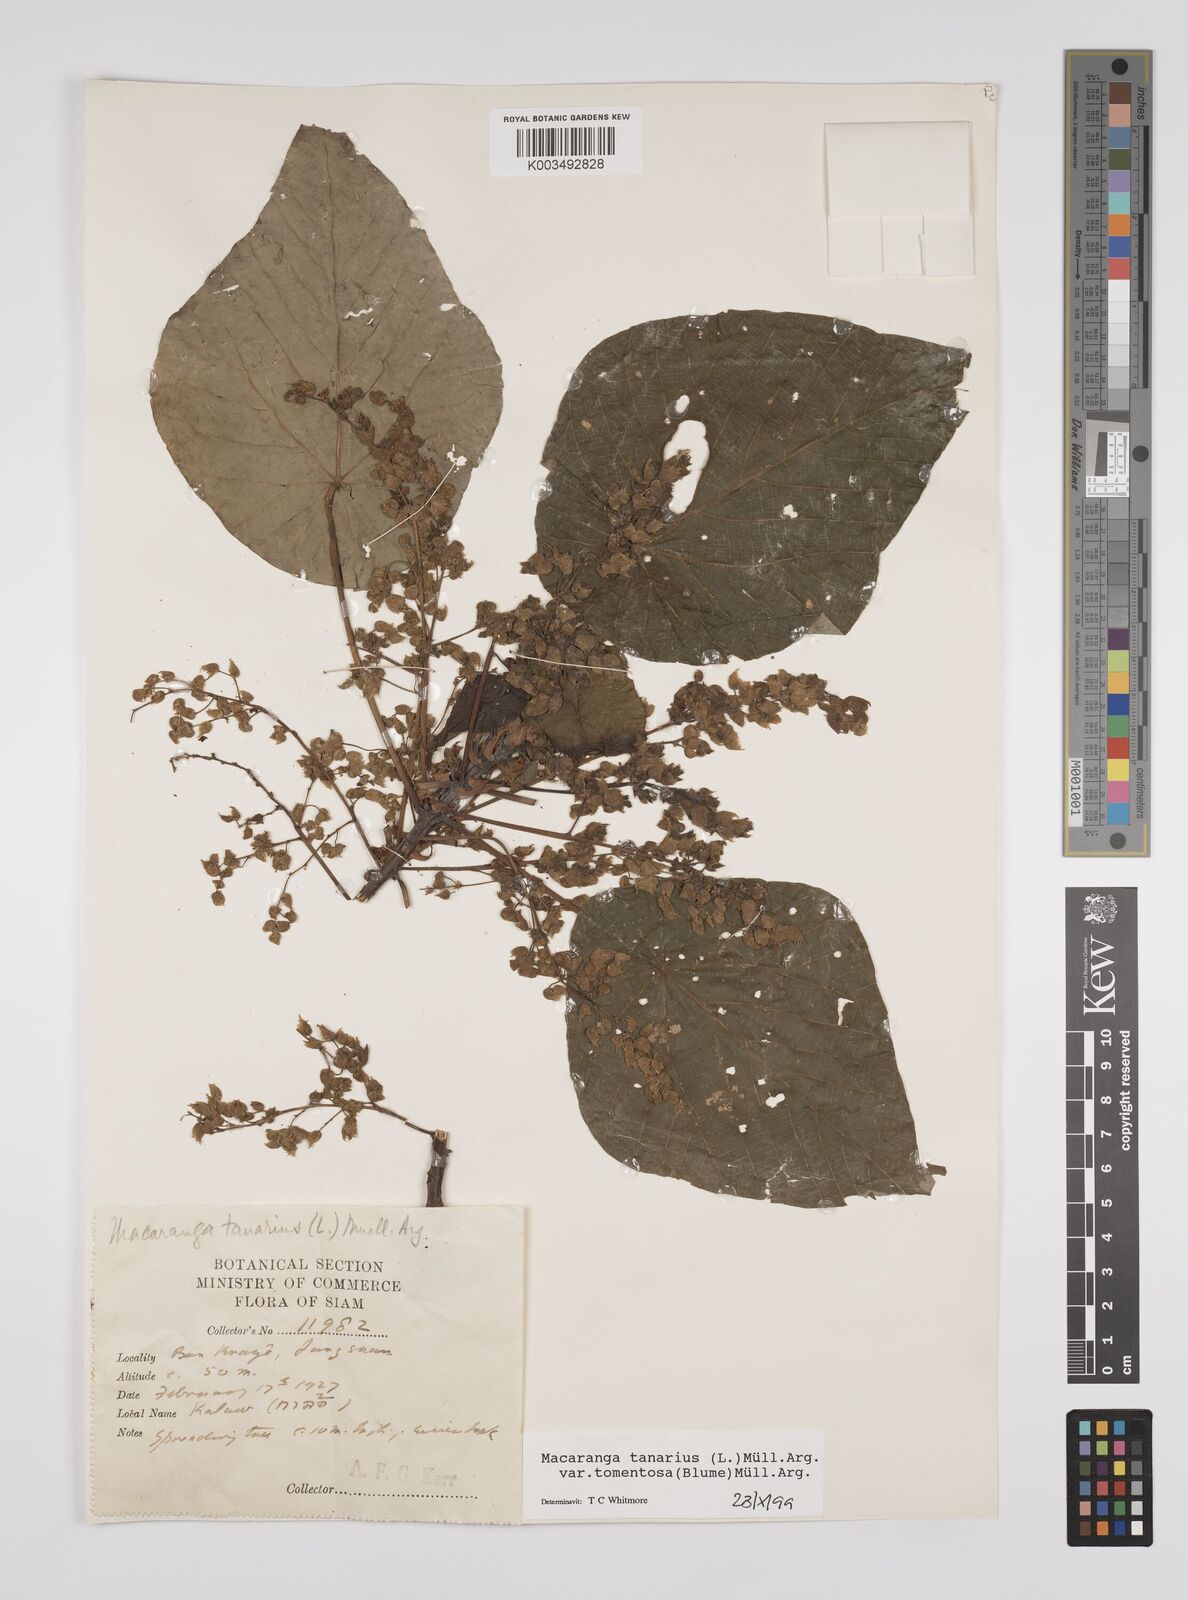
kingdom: Plantae
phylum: Tracheophyta
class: Magnoliopsida
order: Malpighiales
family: Euphorbiaceae
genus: Macaranga
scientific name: Macaranga tanarius
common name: Parasol leaf tree
